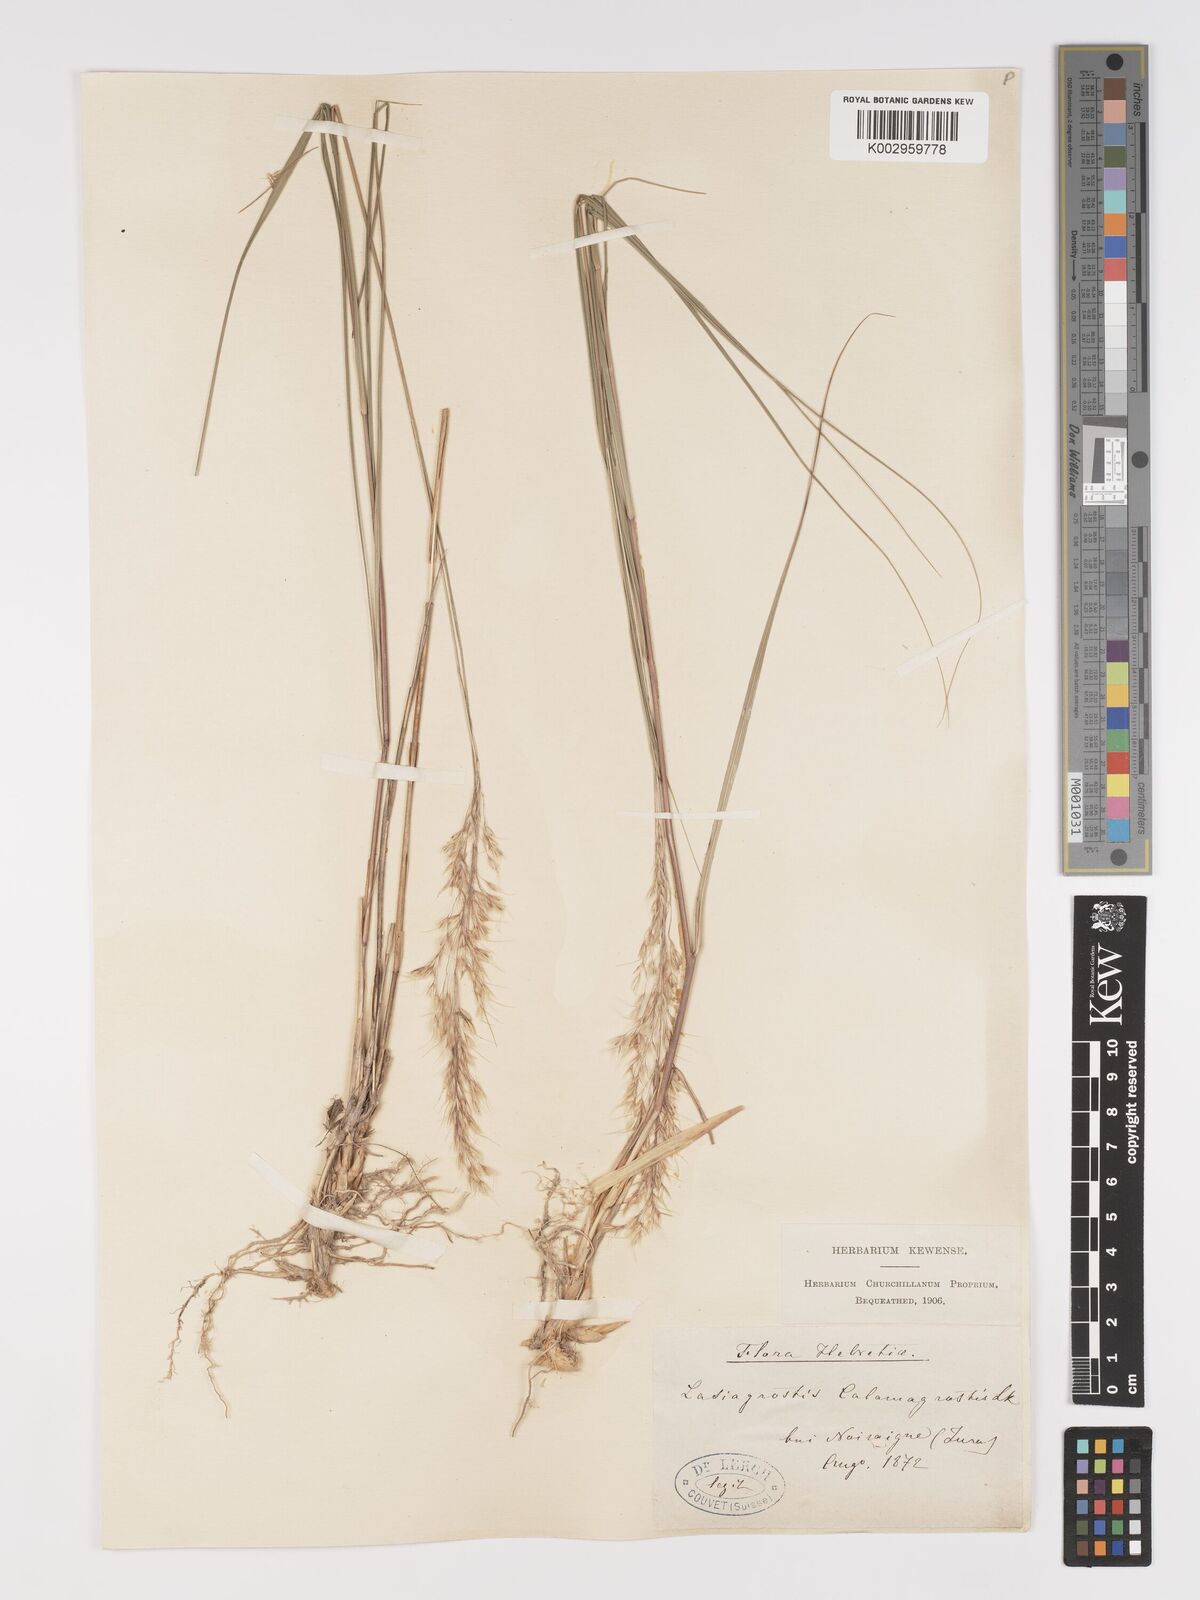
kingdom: Plantae
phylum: Tracheophyta
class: Liliopsida
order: Poales
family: Poaceae
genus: Achnatherum
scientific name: Achnatherum calamagrostis
